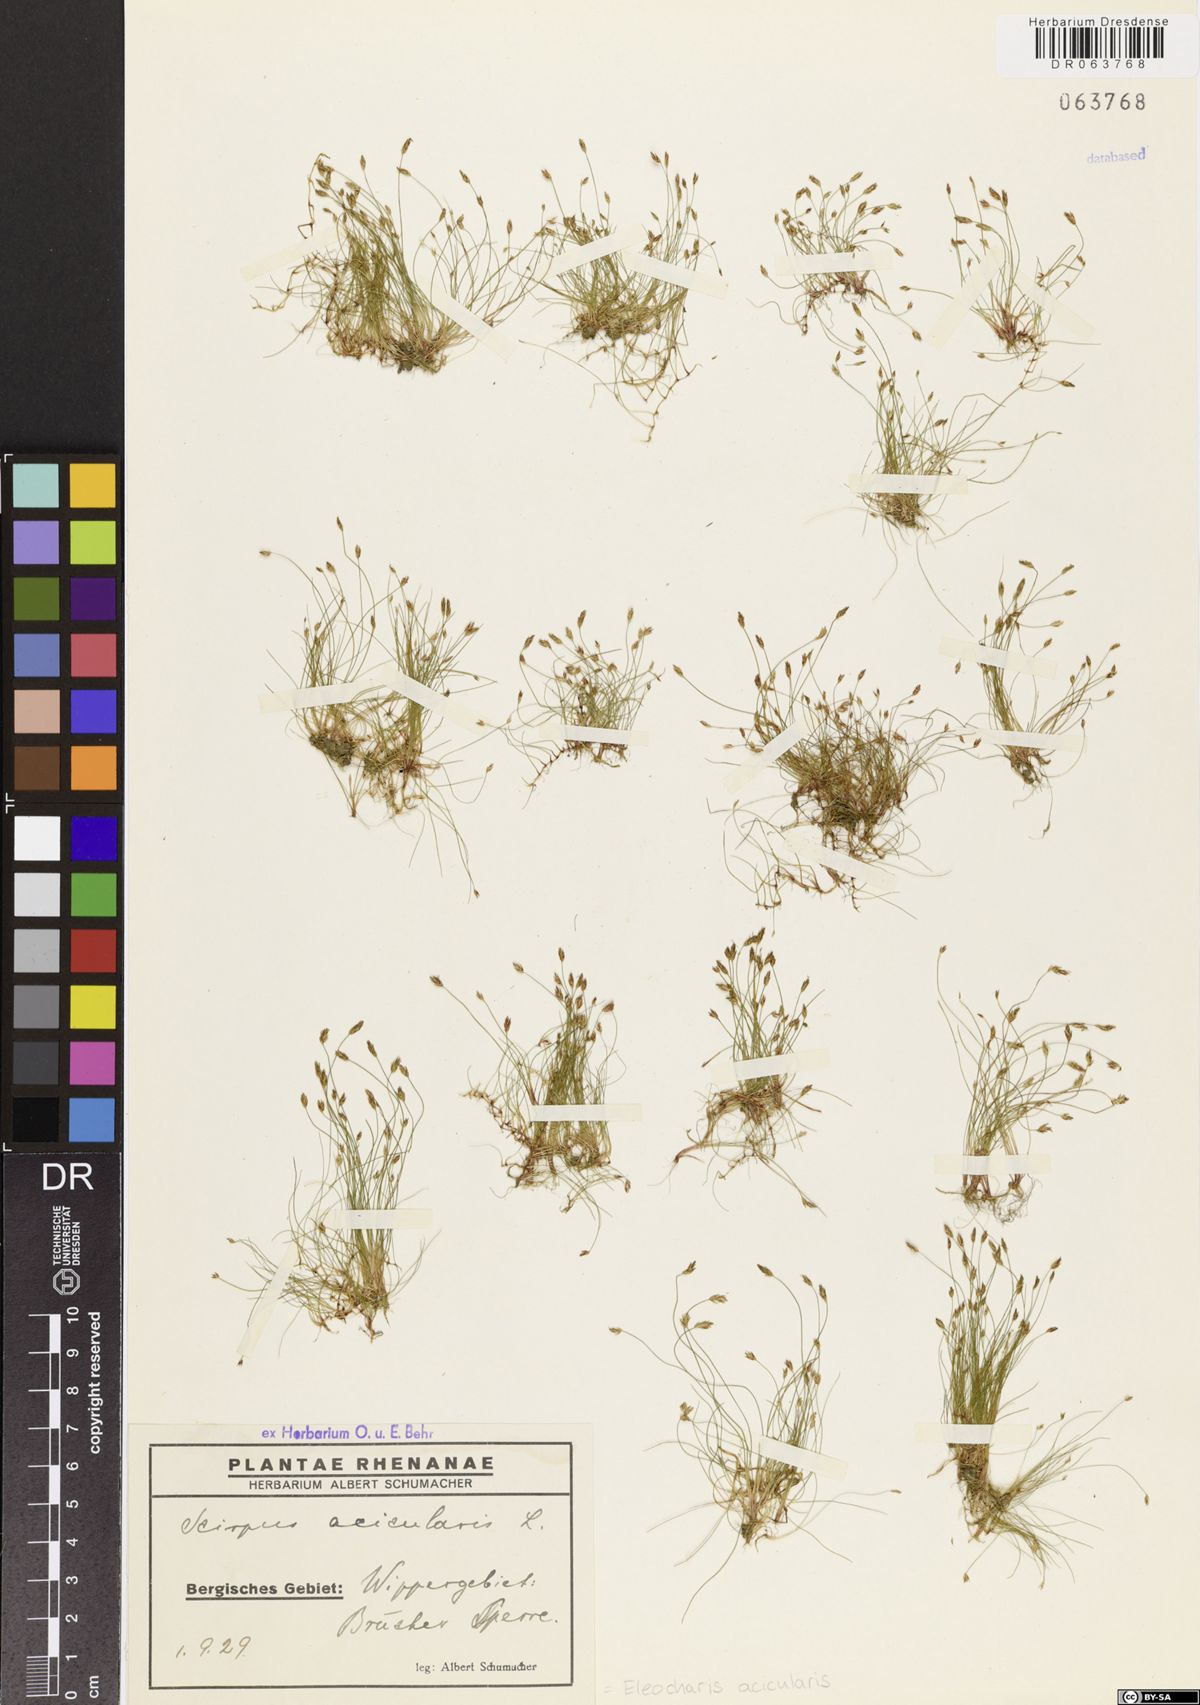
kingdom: Plantae
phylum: Tracheophyta
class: Liliopsida
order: Poales
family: Cyperaceae
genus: Eleocharis
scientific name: Eleocharis acicularis
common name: Needle spike-rush
